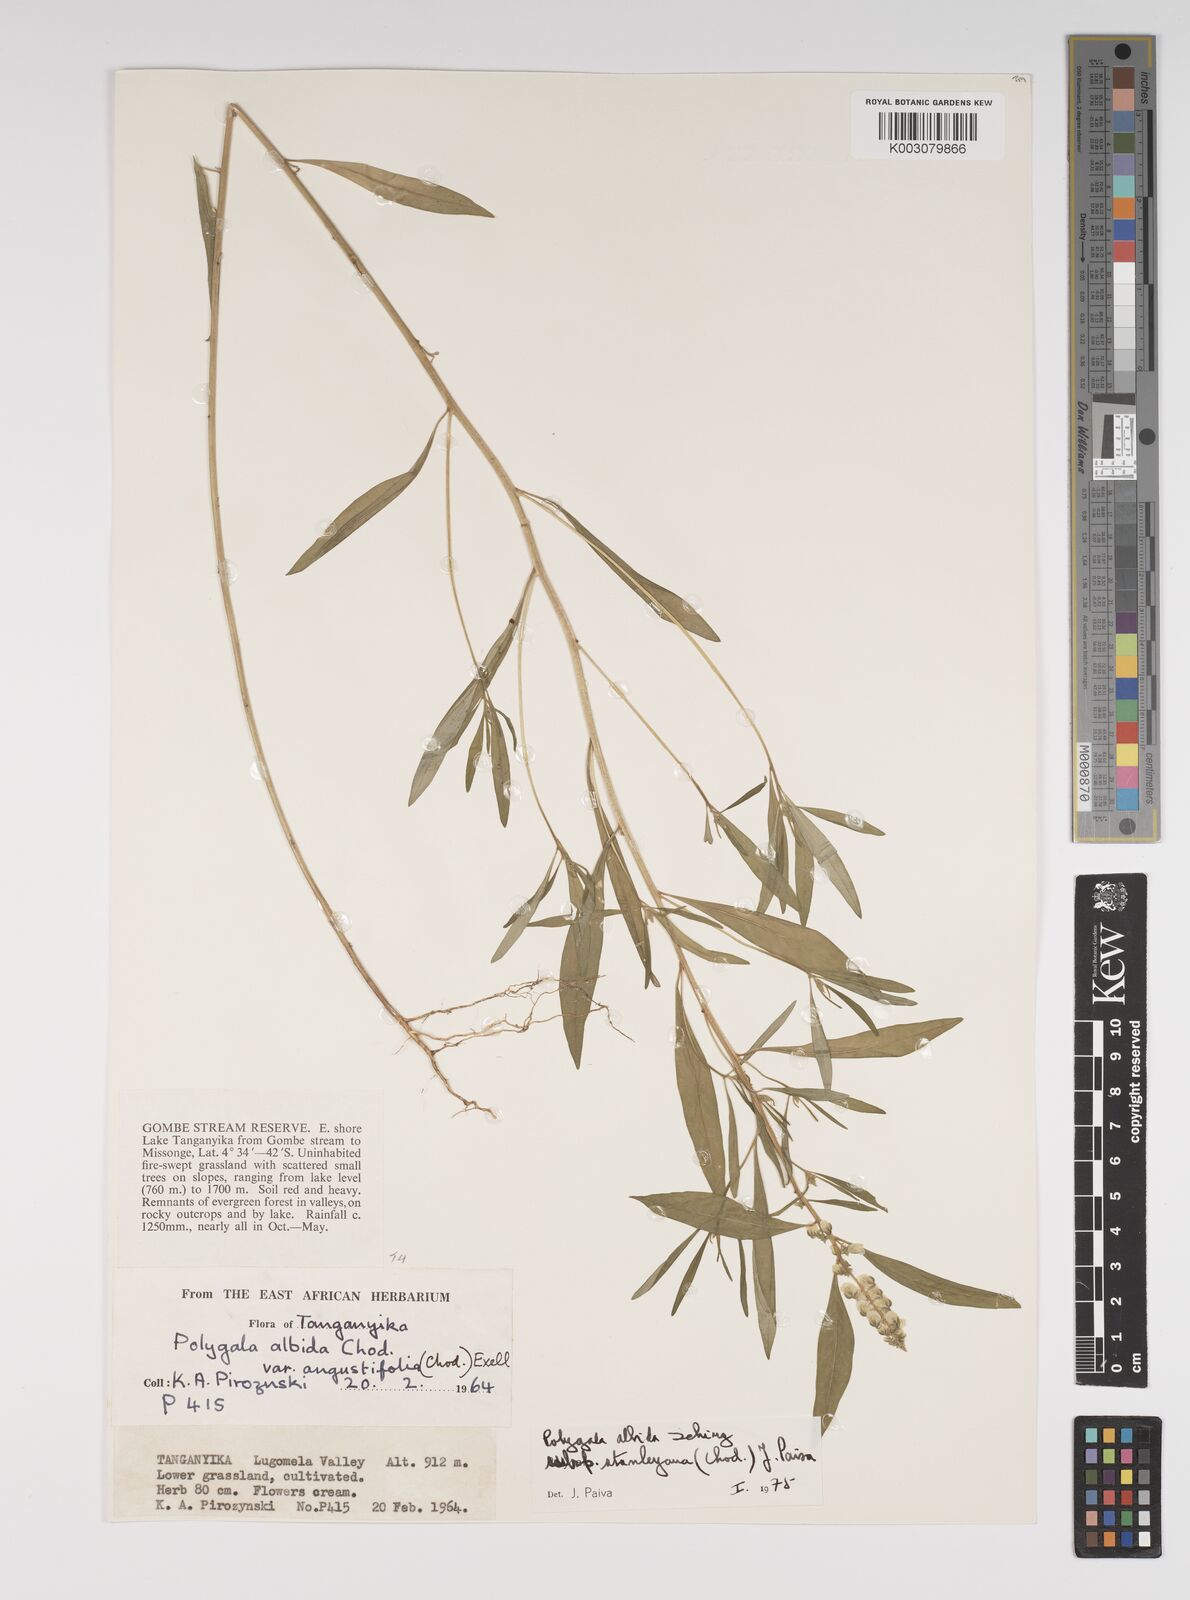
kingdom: Plantae
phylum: Tracheophyta
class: Magnoliopsida
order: Fabales
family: Polygalaceae
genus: Polygala
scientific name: Polygala albida
